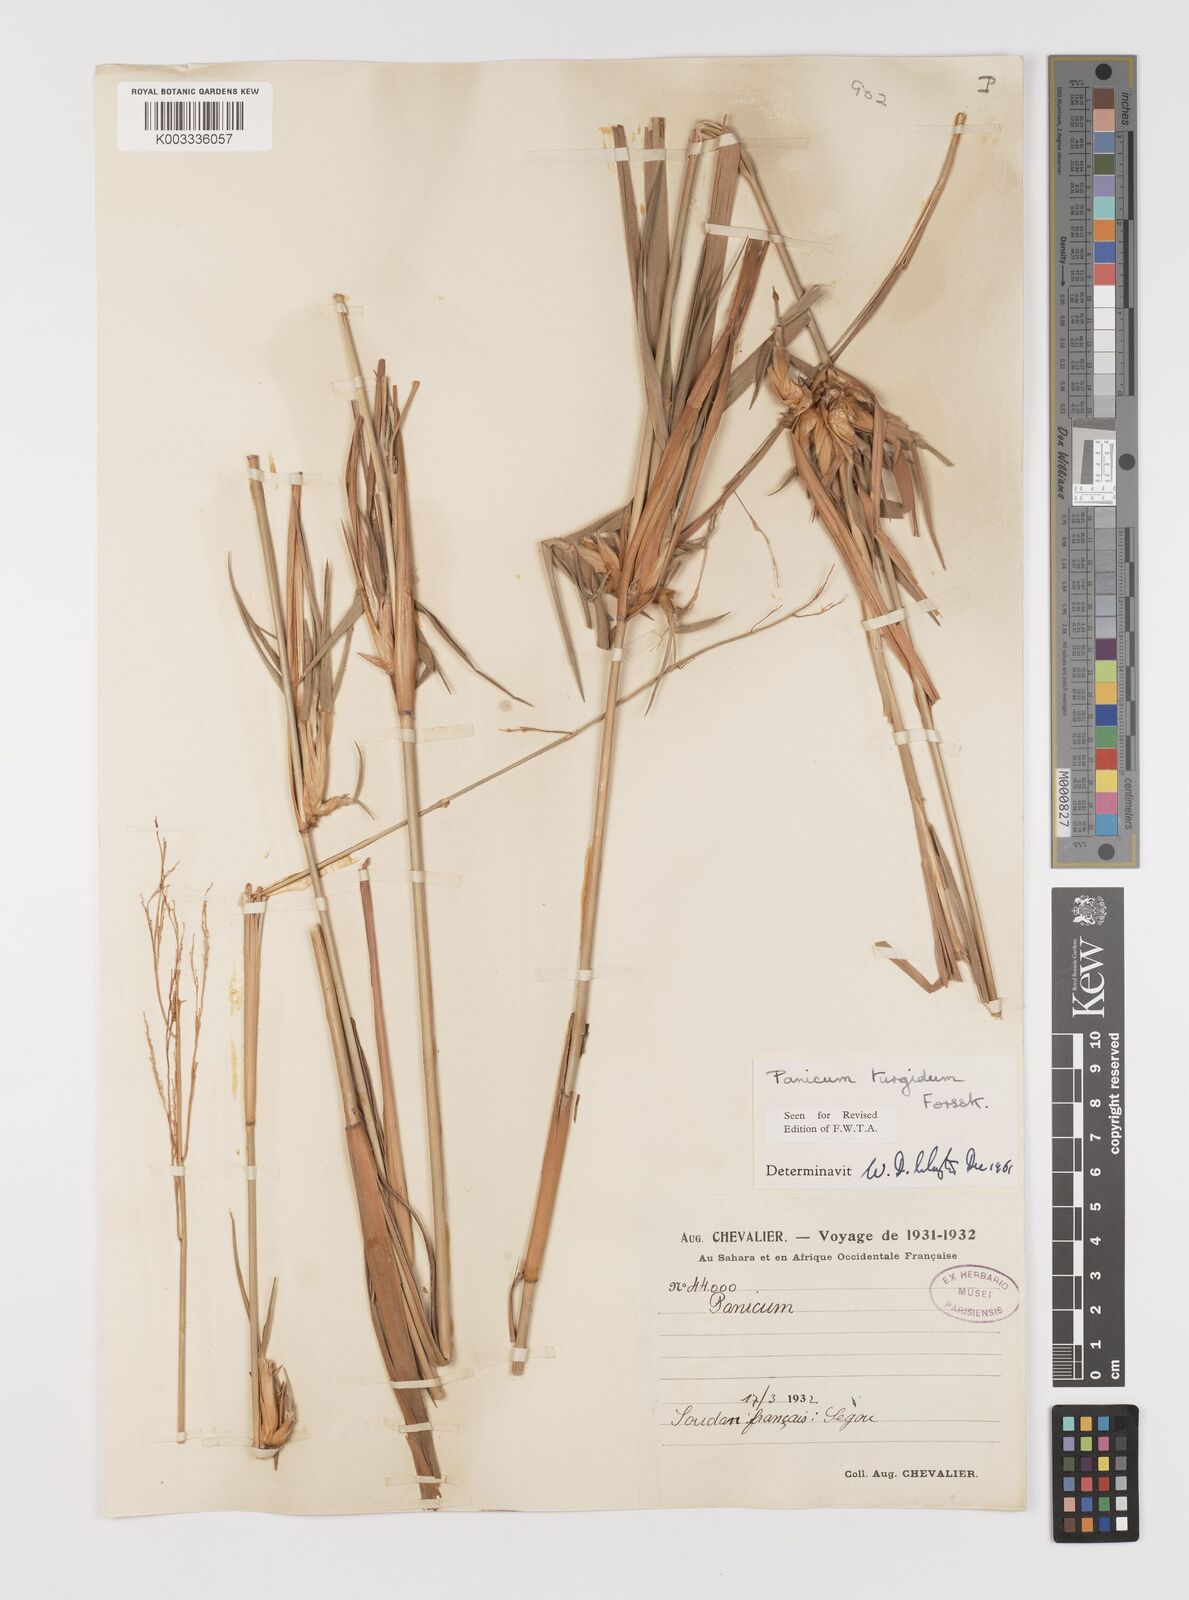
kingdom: Plantae
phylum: Tracheophyta
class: Liliopsida
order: Poales
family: Poaceae
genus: Panicum
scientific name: Panicum turgidum
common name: Desert grass
